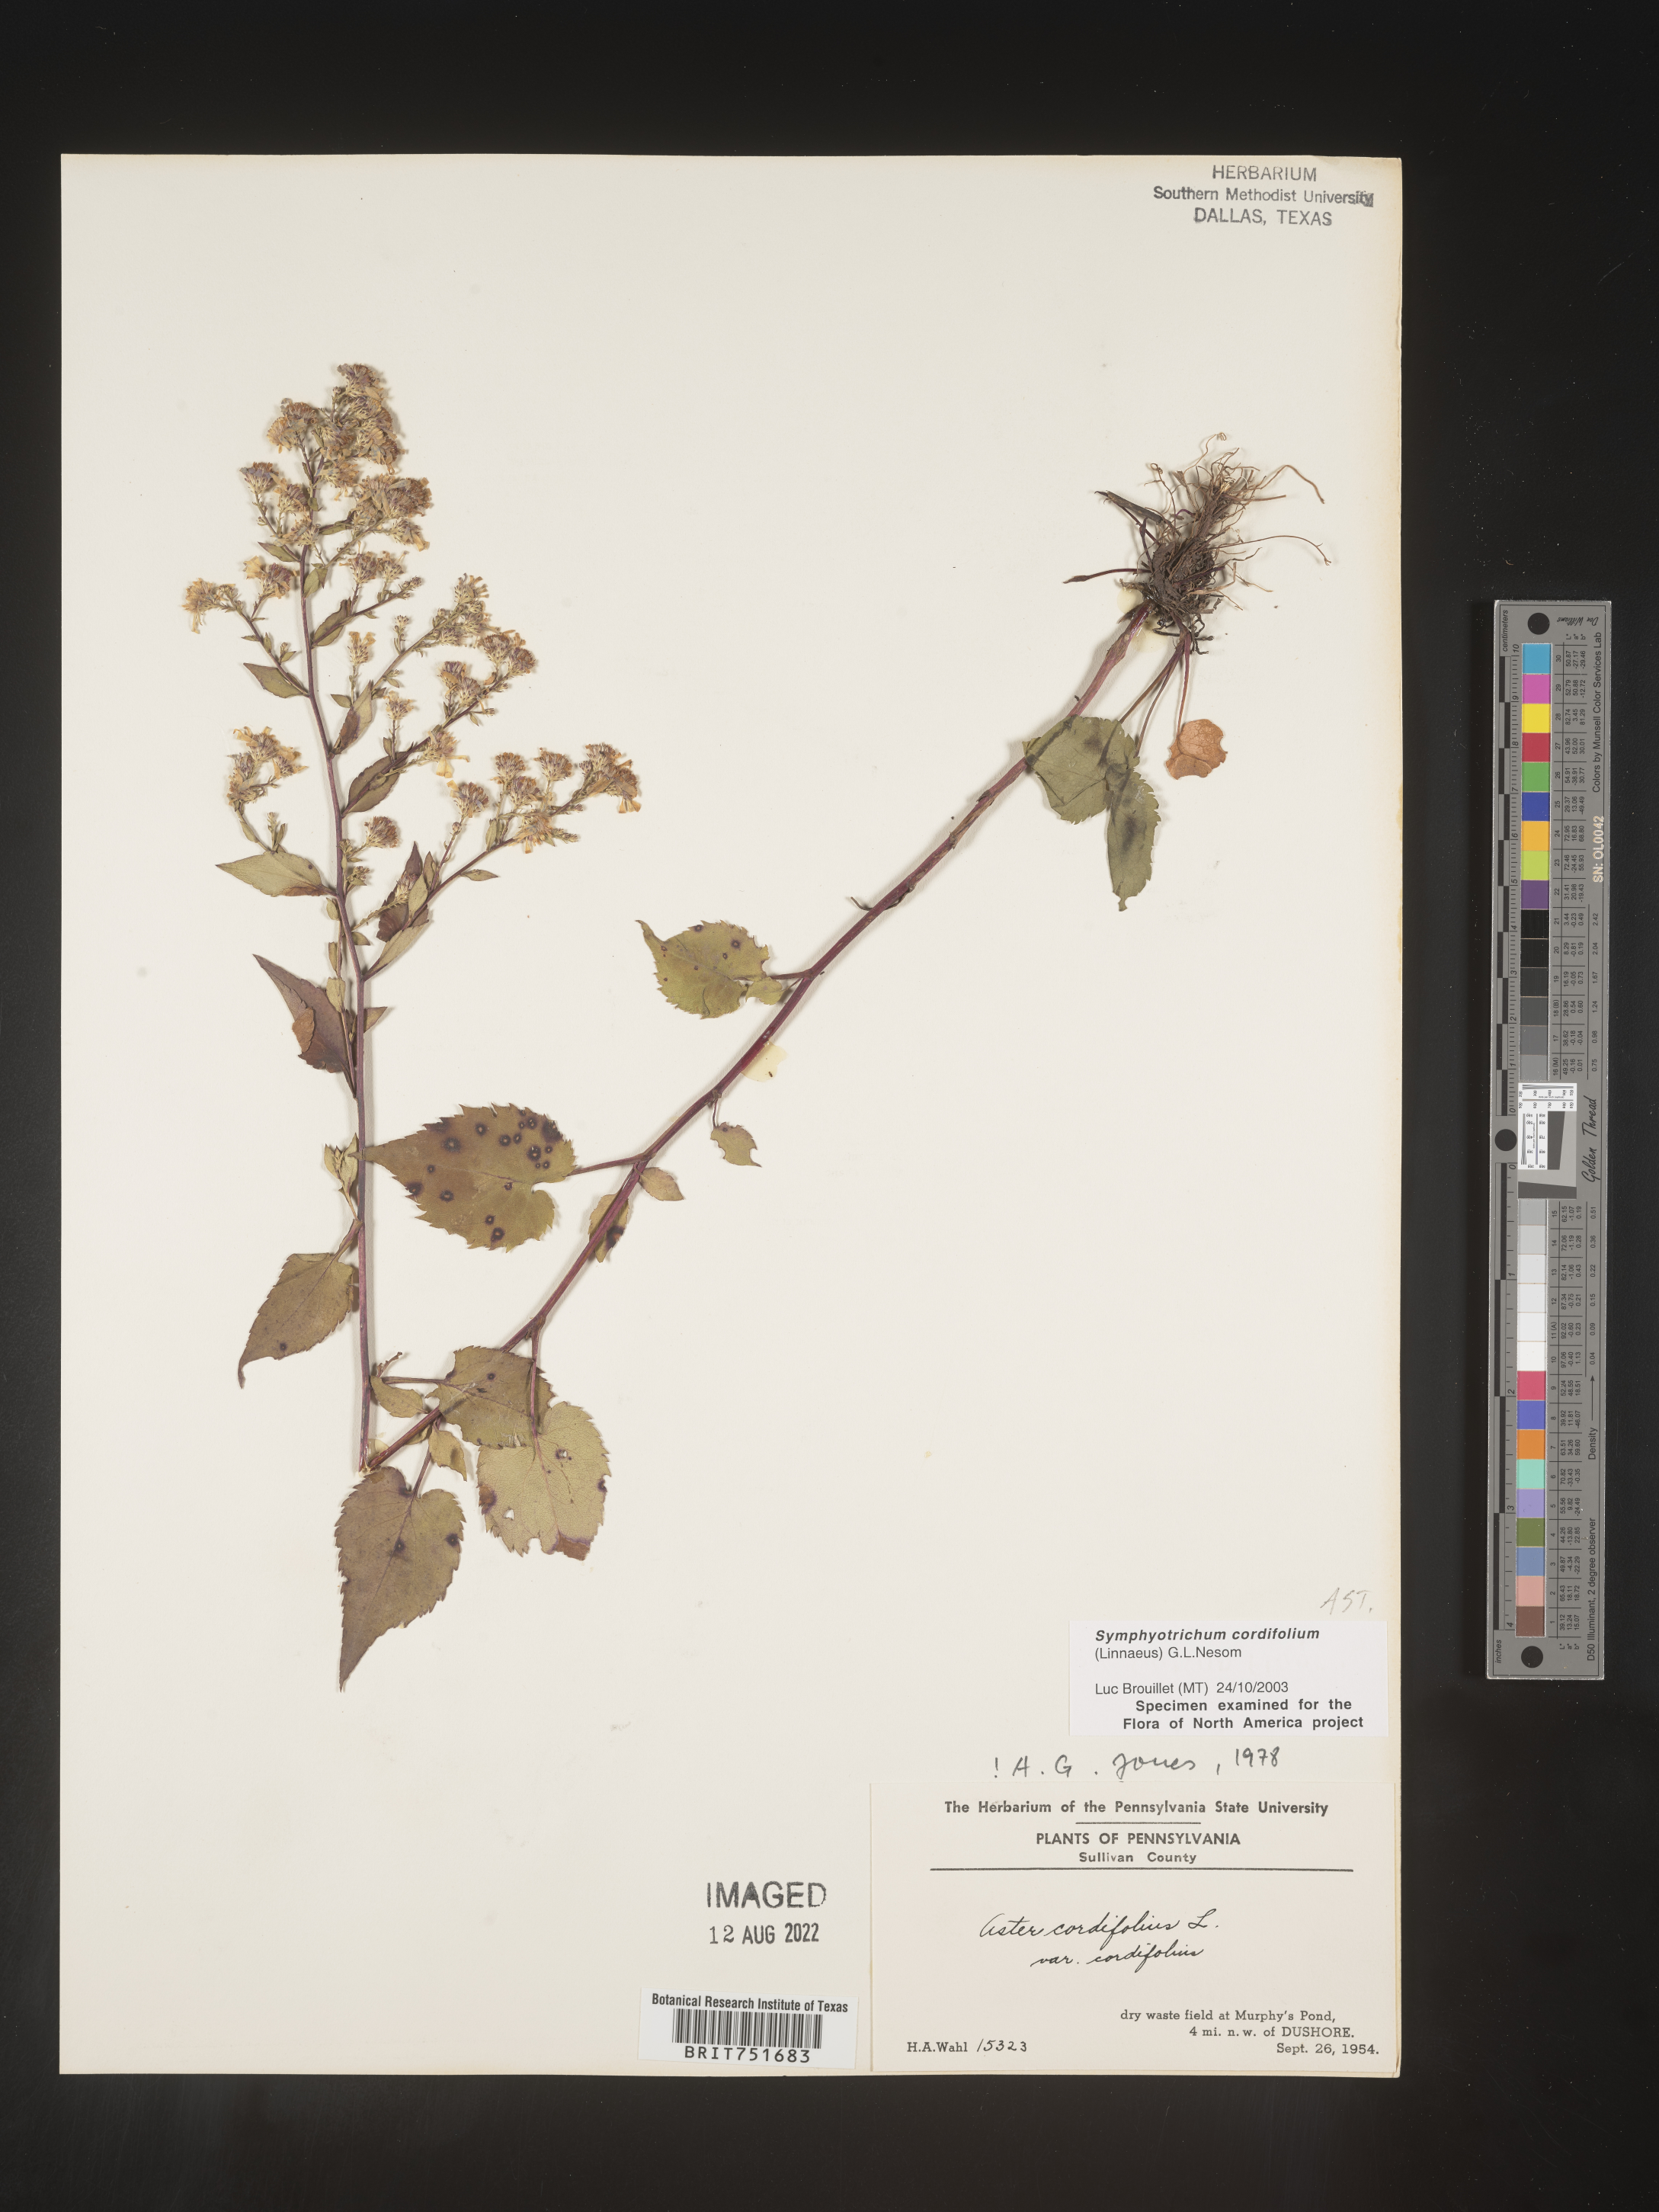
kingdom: Plantae
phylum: Tracheophyta
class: Magnoliopsida
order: Asterales
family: Asteraceae
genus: Symphyotrichum
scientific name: Symphyotrichum cordifolium
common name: Beeweed
